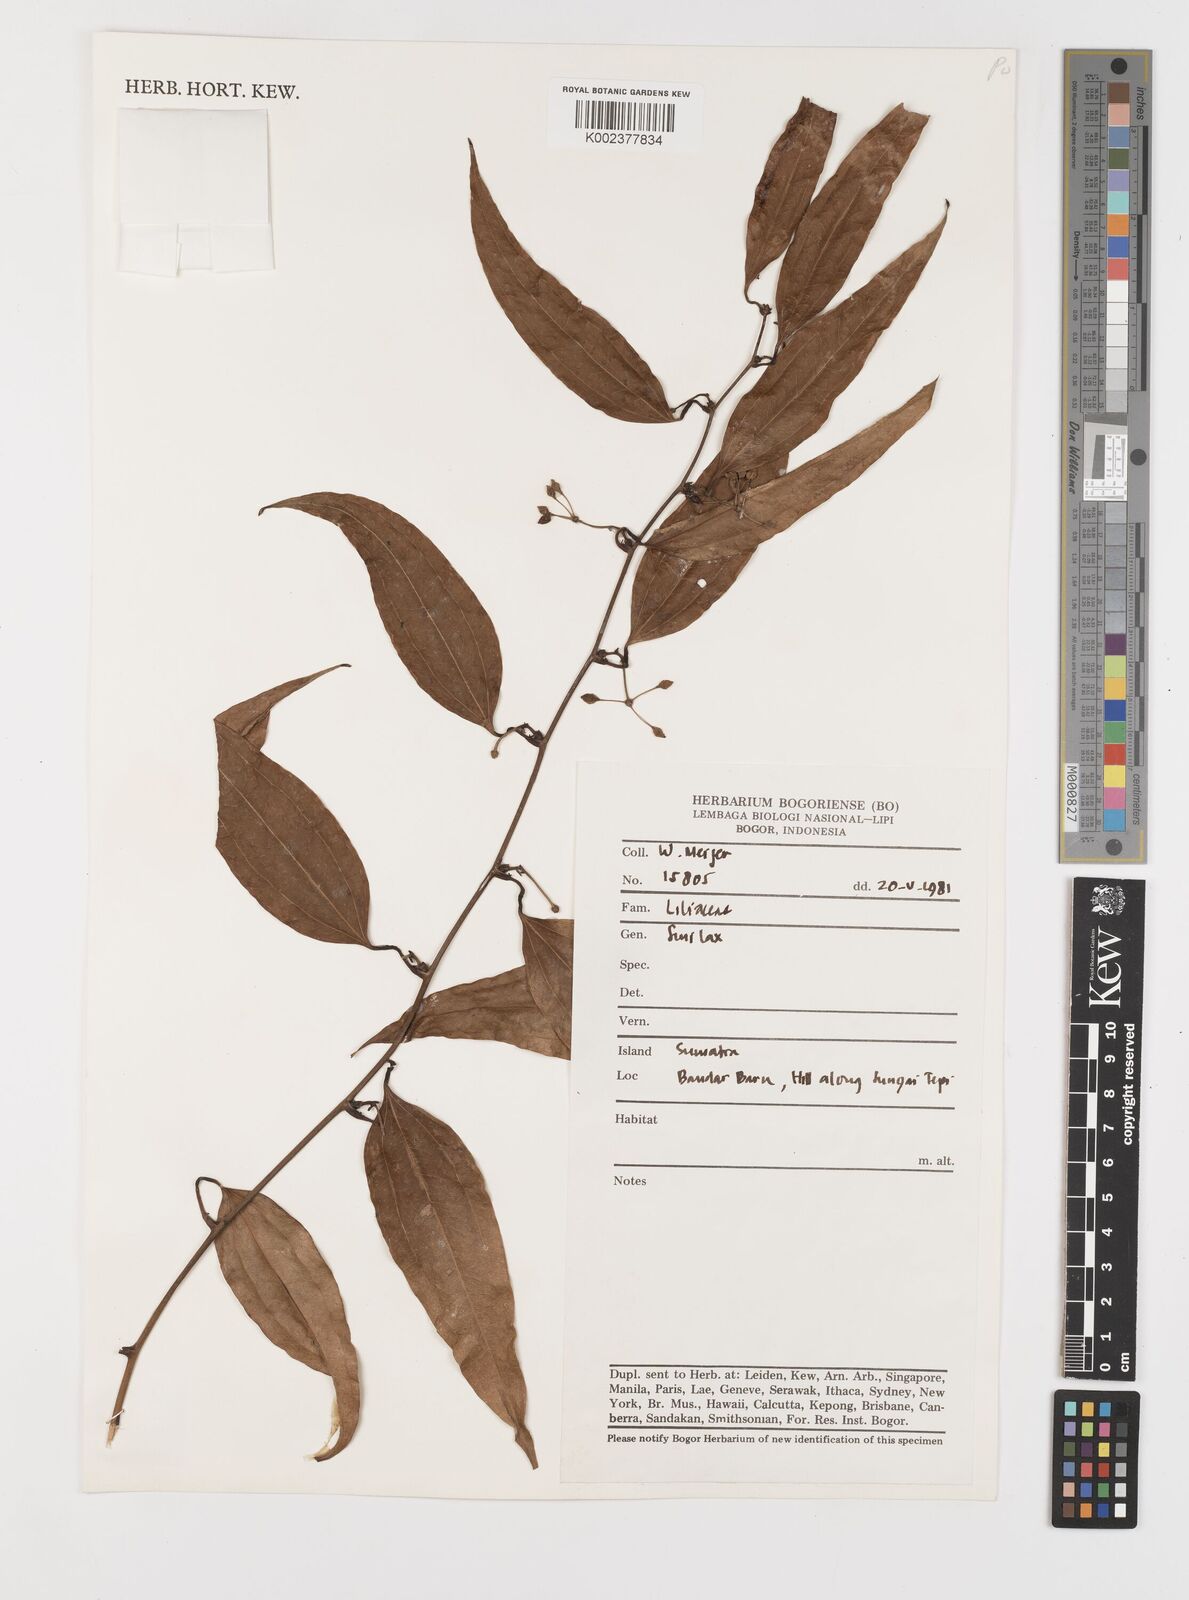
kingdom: Plantae
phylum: Tracheophyta
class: Liliopsida
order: Liliales
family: Smilacaceae
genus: Smilax
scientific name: Smilax
